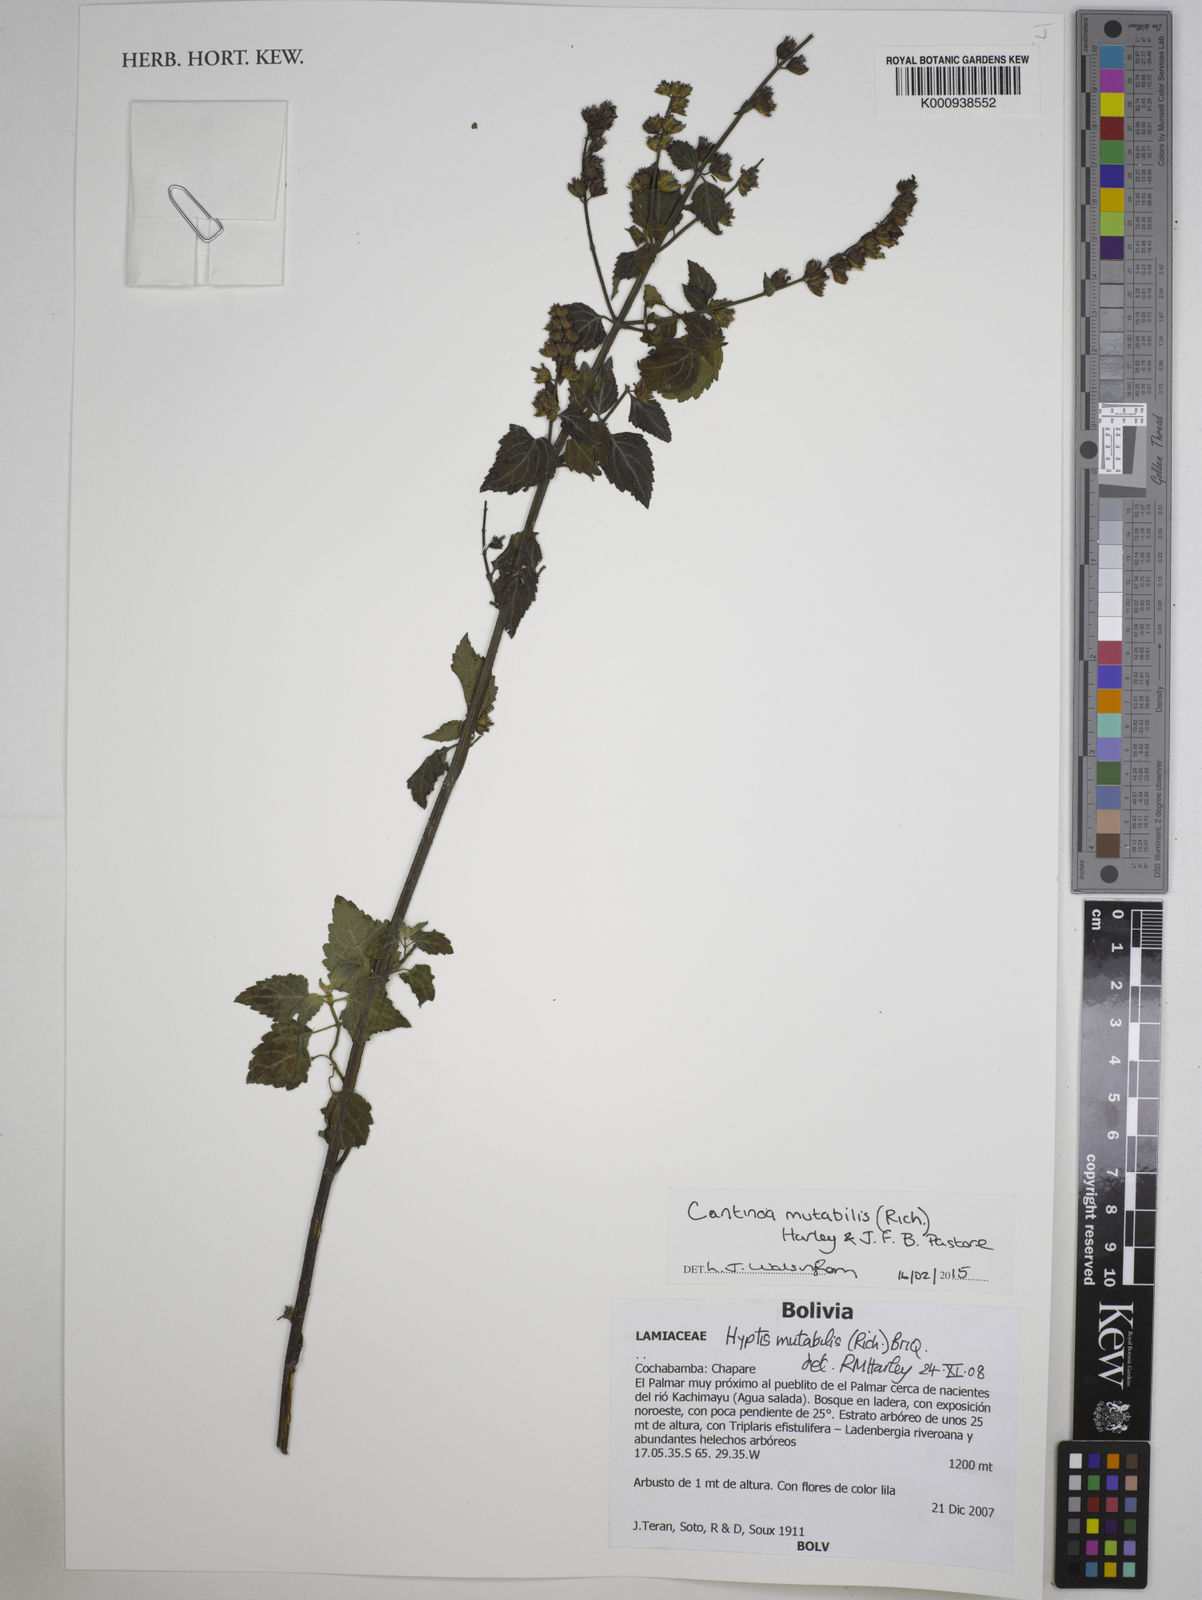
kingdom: Plantae
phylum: Tracheophyta
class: Magnoliopsida
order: Lamiales
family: Lamiaceae
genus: Cantinoa
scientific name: Cantinoa mutabilis
